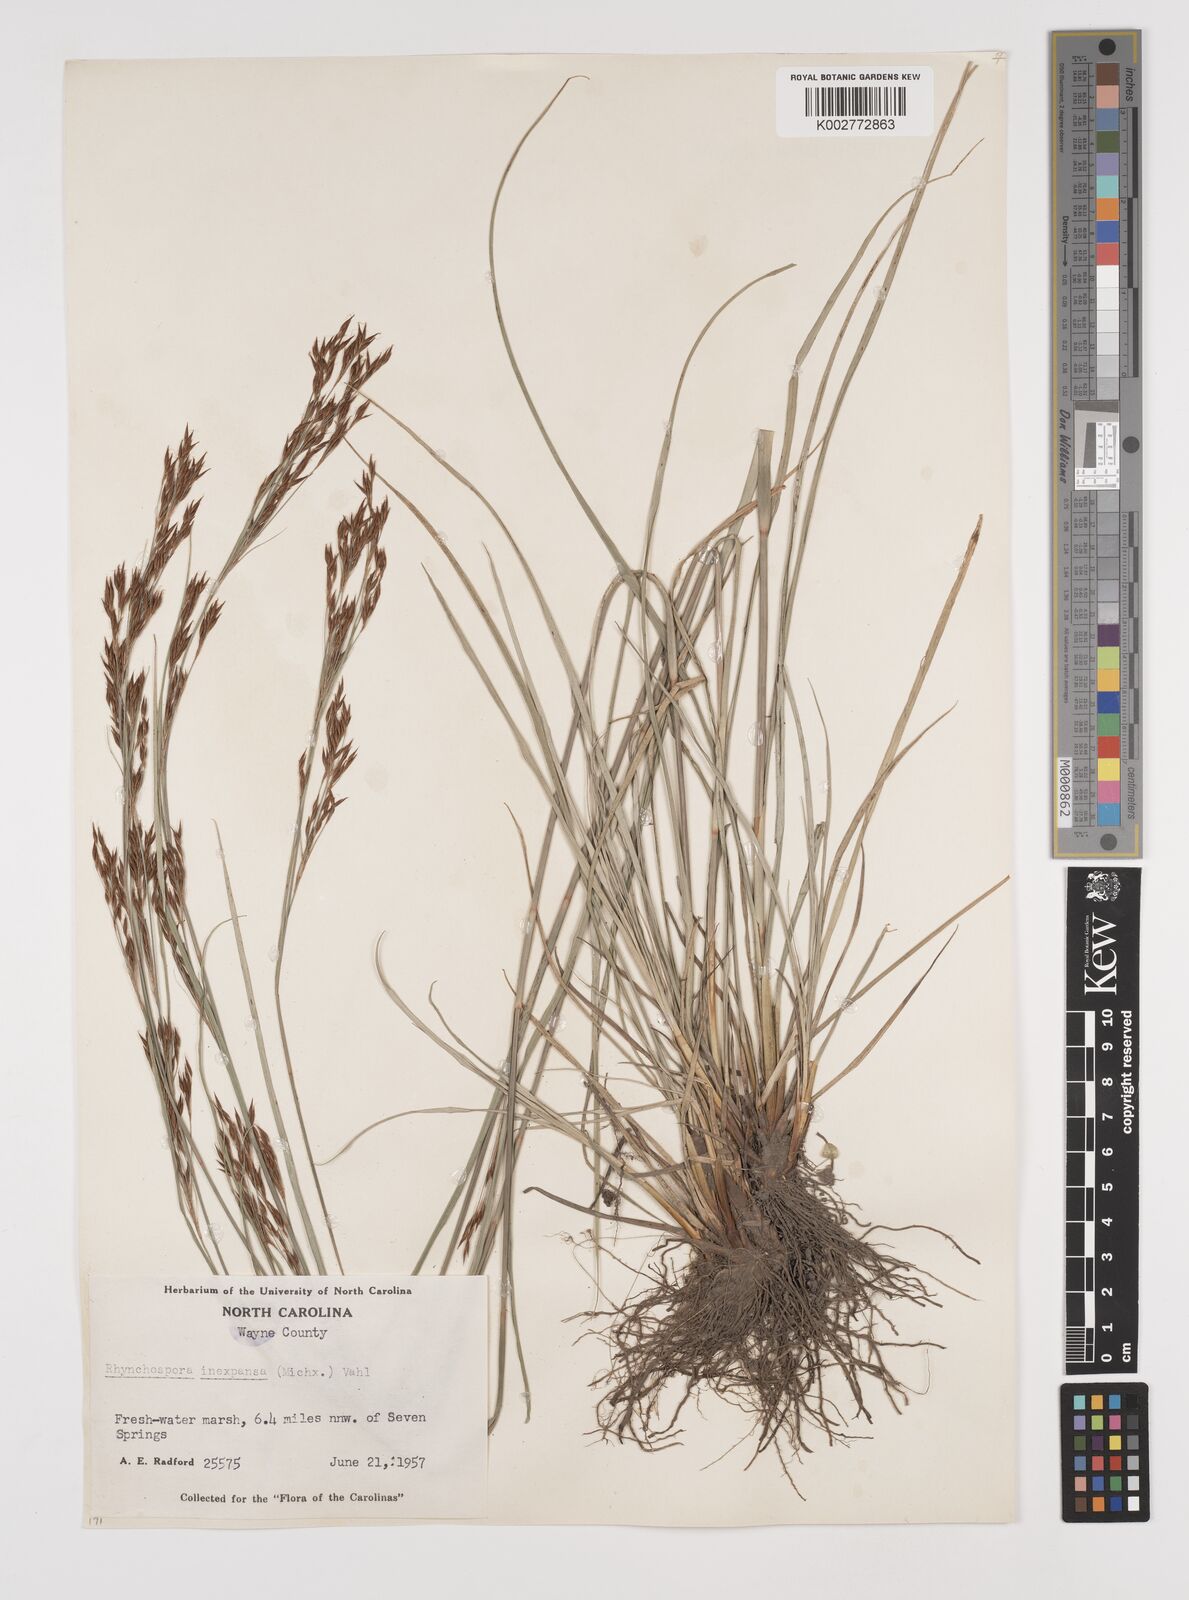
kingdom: Plantae
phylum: Tracheophyta
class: Liliopsida
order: Poales
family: Cyperaceae
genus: Rhynchospora
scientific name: Rhynchospora inexpansa
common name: Nodding beaksedge
